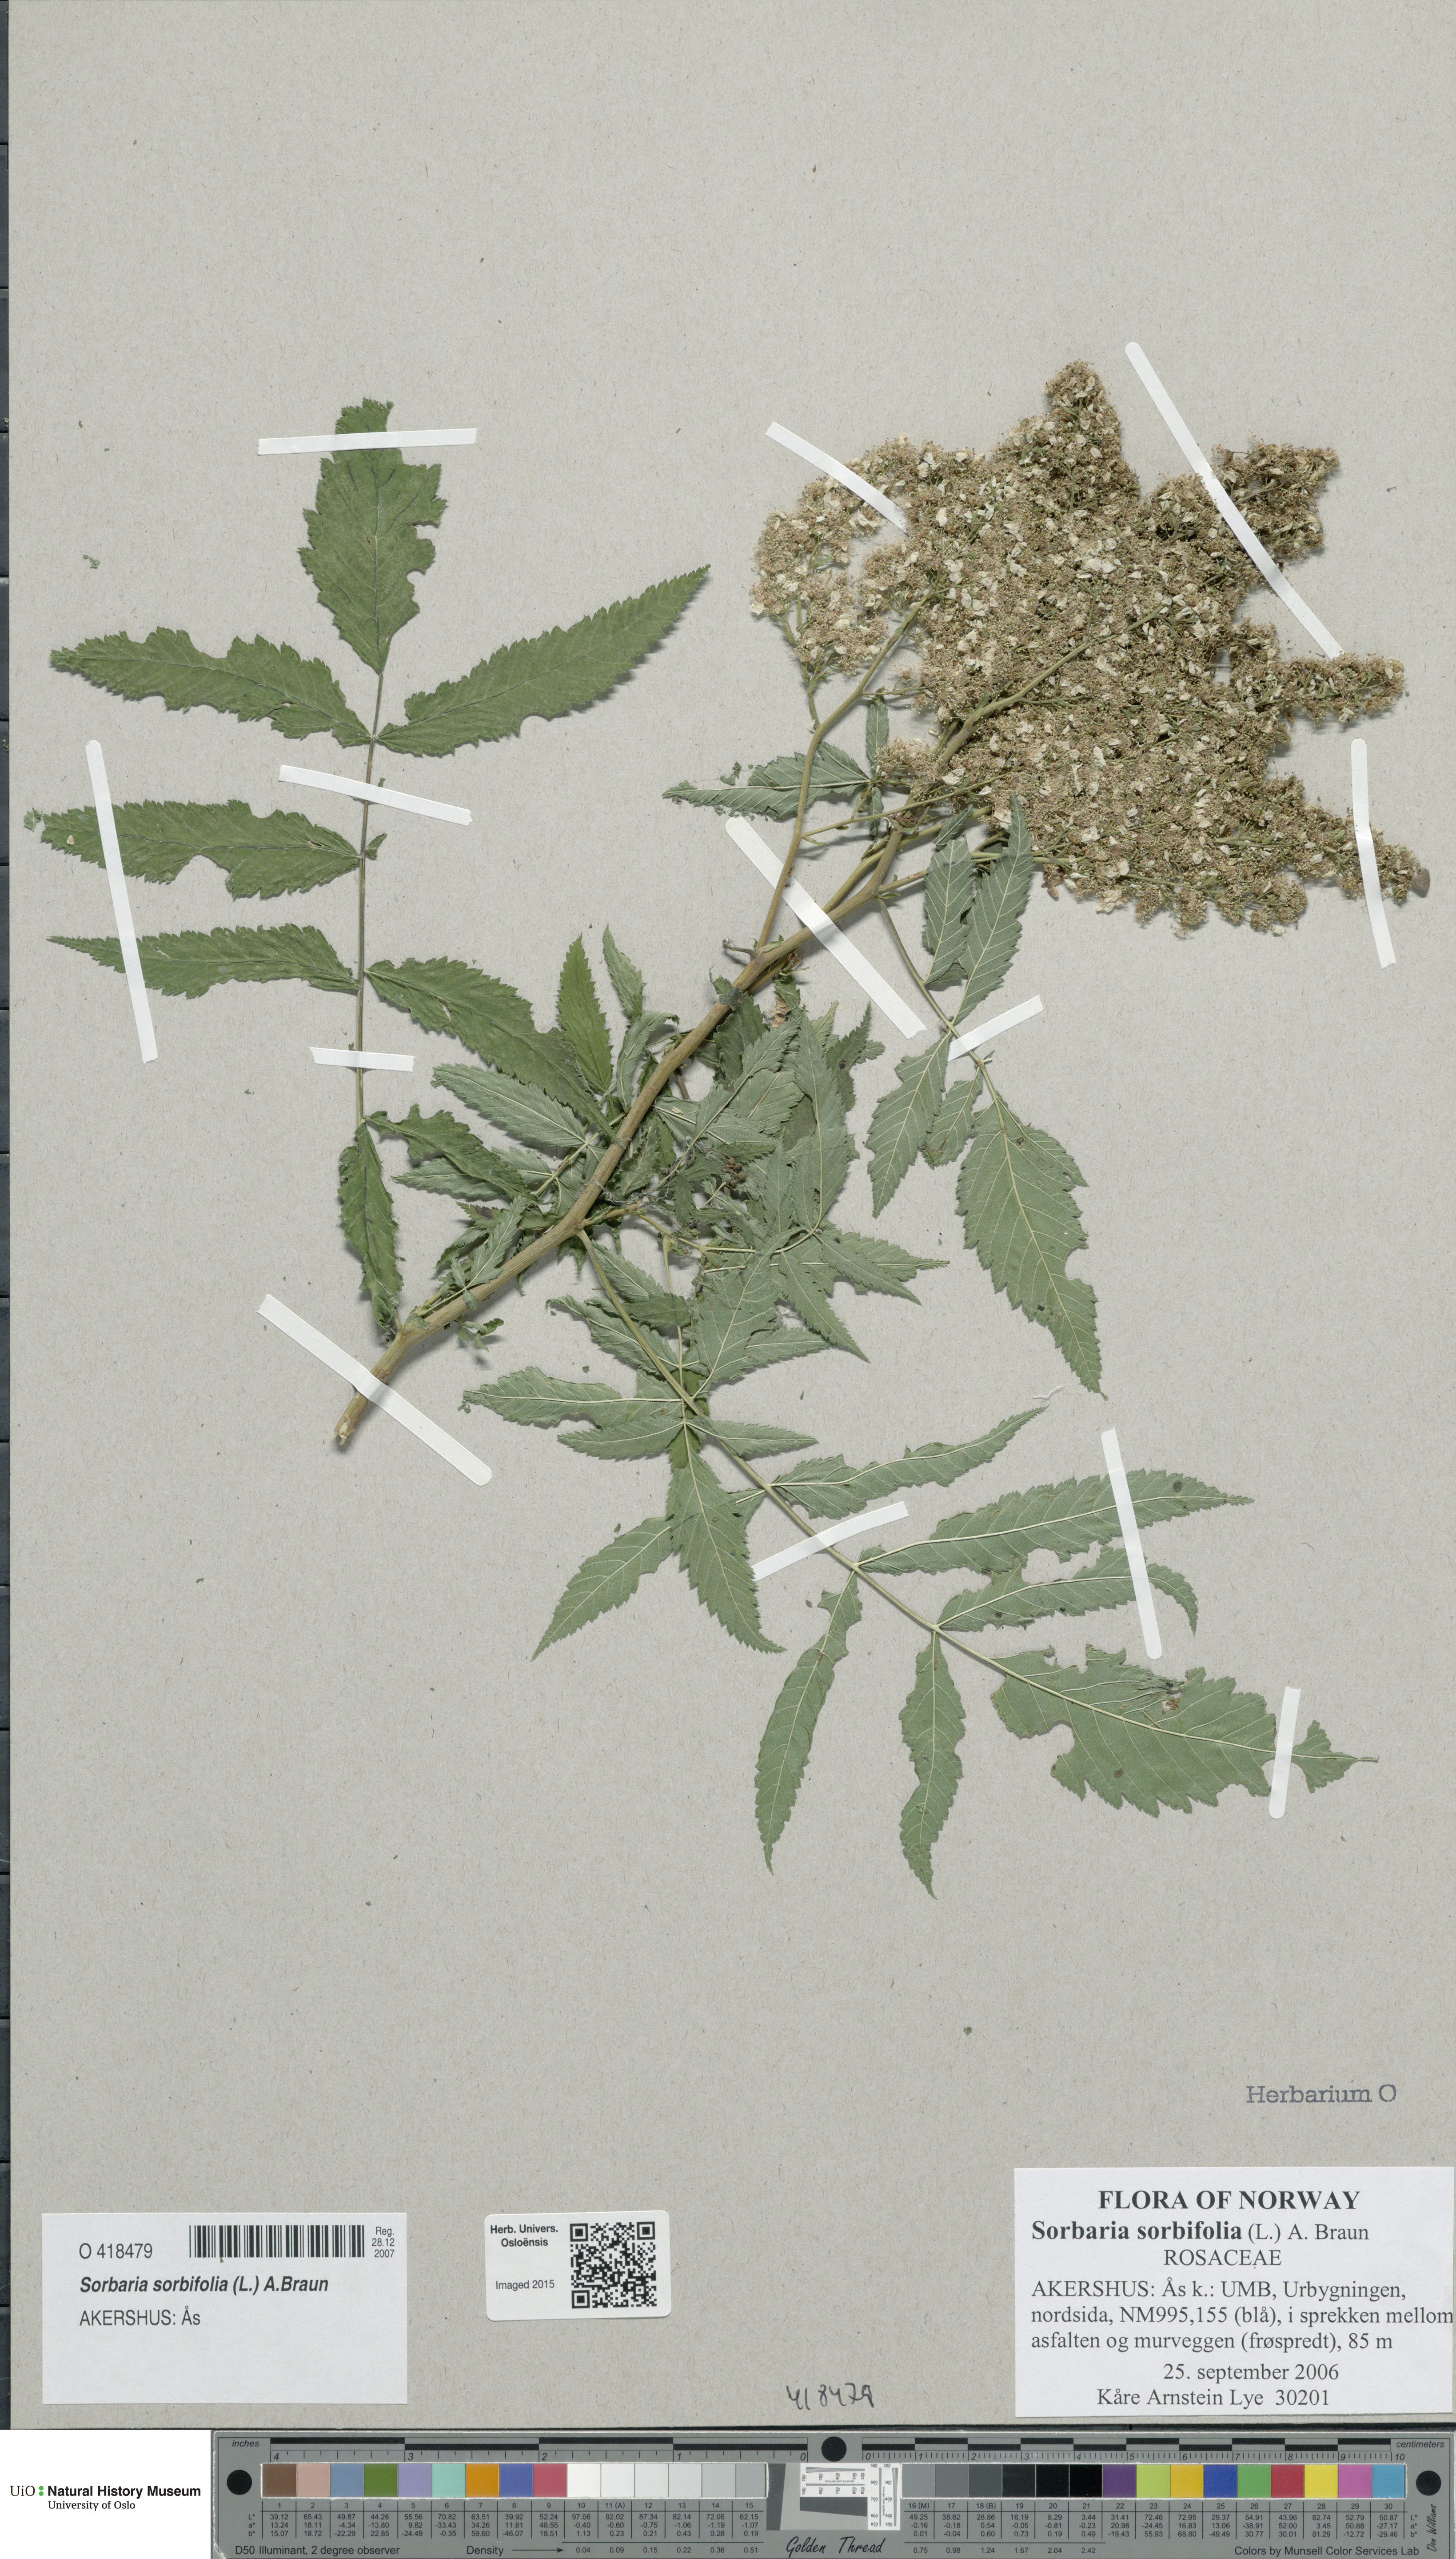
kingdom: Plantae
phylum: Tracheophyta
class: Magnoliopsida
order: Rosales
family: Rosaceae
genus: Sorbaria
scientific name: Sorbaria sorbifolia
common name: False spiraea
